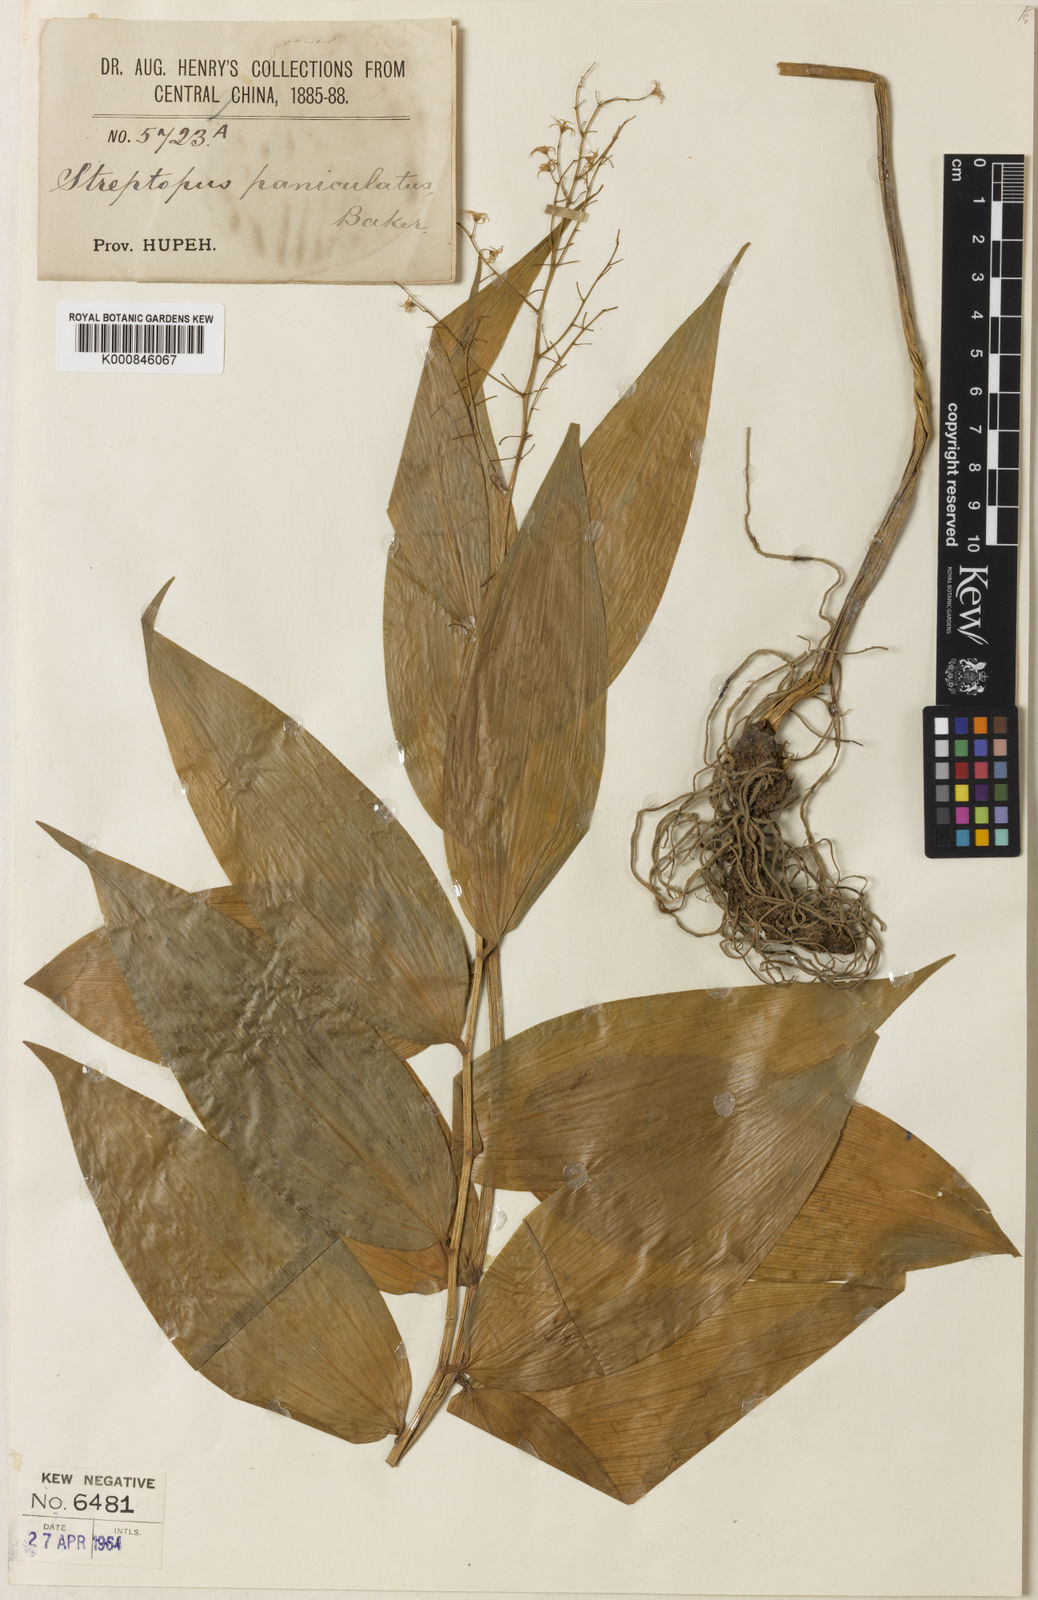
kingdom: Plantae
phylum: Tracheophyta
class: Liliopsida
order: Asparagales
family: Asparagaceae
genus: Maianthemum
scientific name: Maianthemum paniculatum
